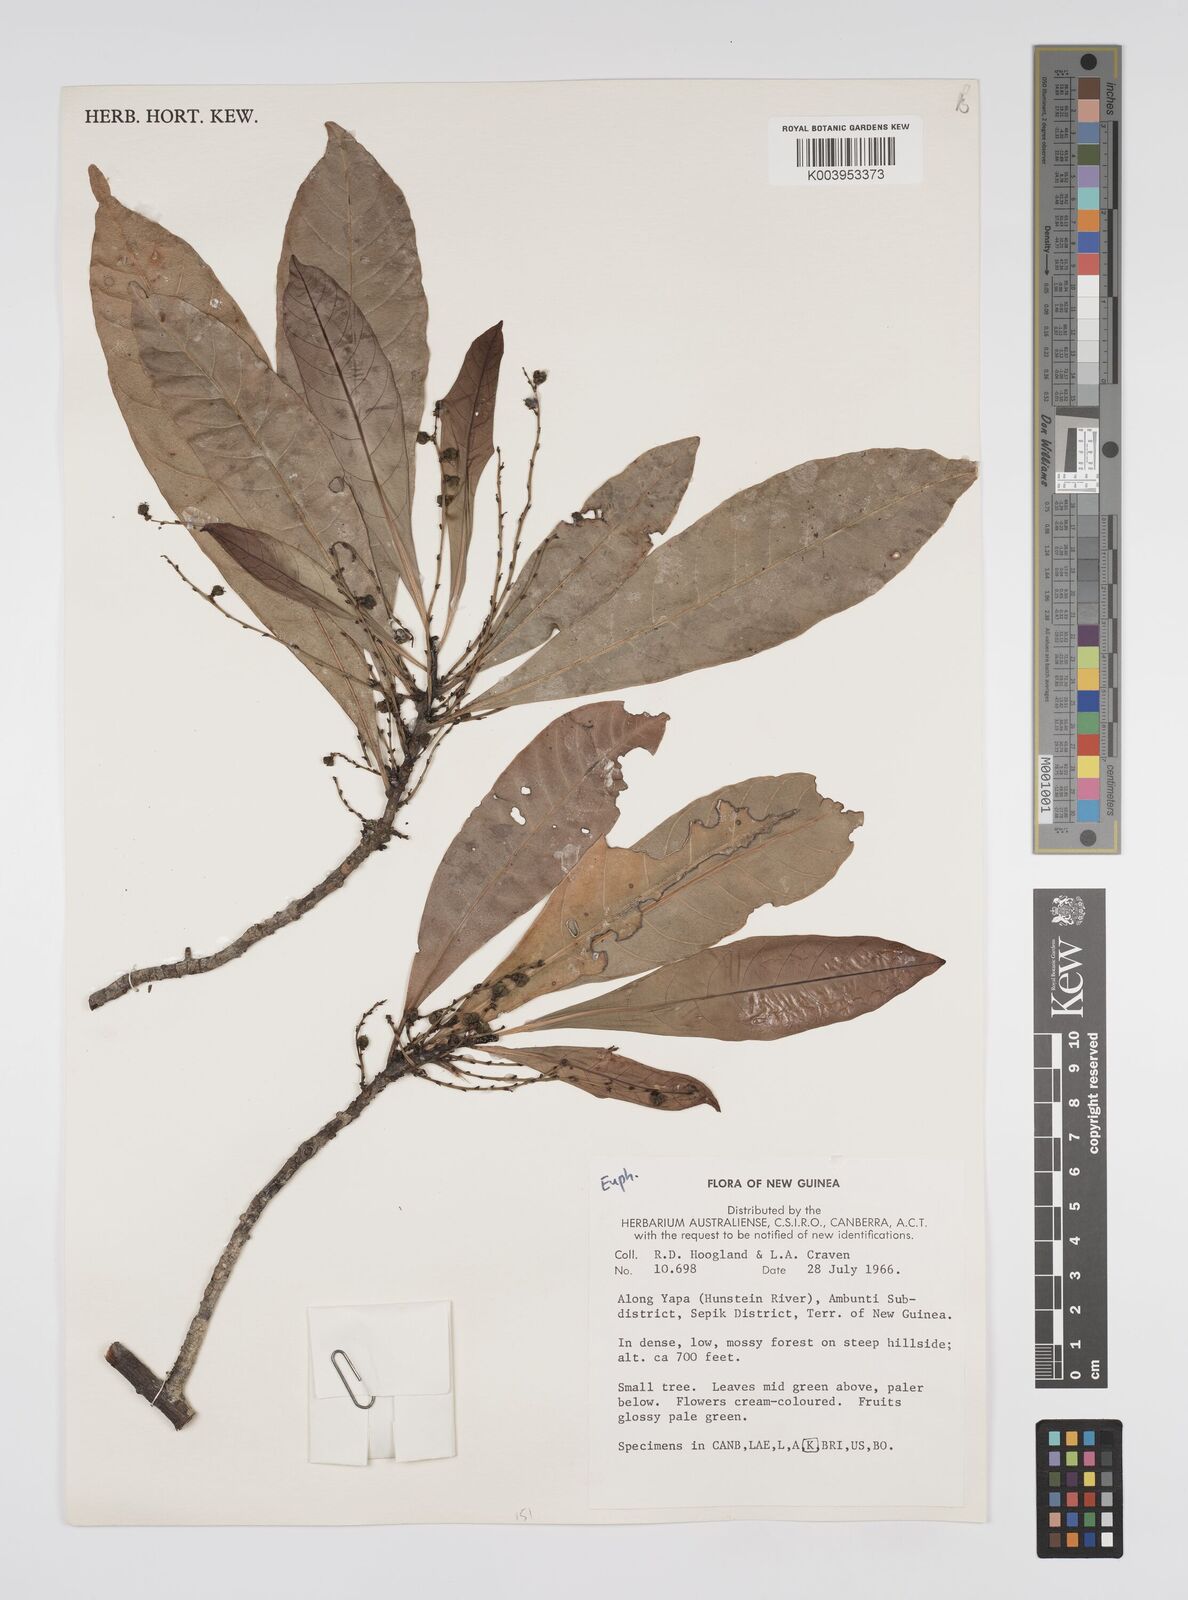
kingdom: Plantae
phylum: Tracheophyta
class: Magnoliopsida
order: Malpighiales
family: Euphorbiaceae
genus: Agrostistachys
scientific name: Agrostistachys
